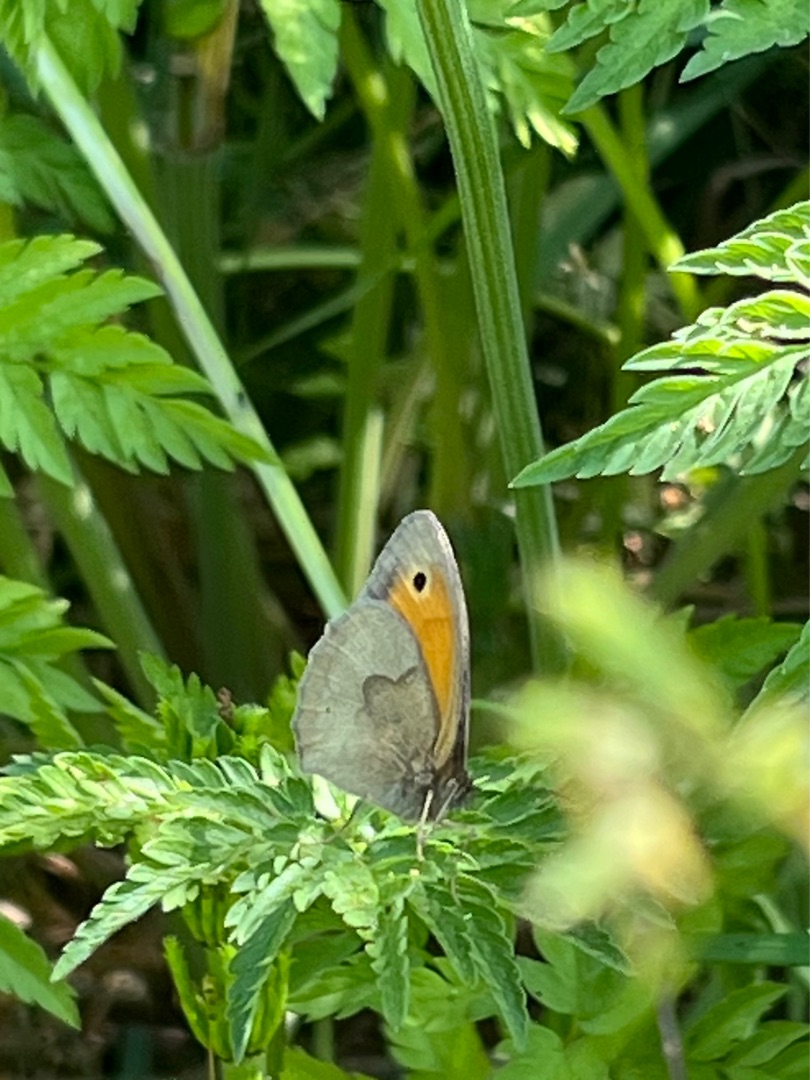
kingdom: Animalia
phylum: Arthropoda
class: Insecta
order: Lepidoptera
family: Nymphalidae
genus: Maniola
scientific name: Maniola jurtina
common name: Græsrandøje
